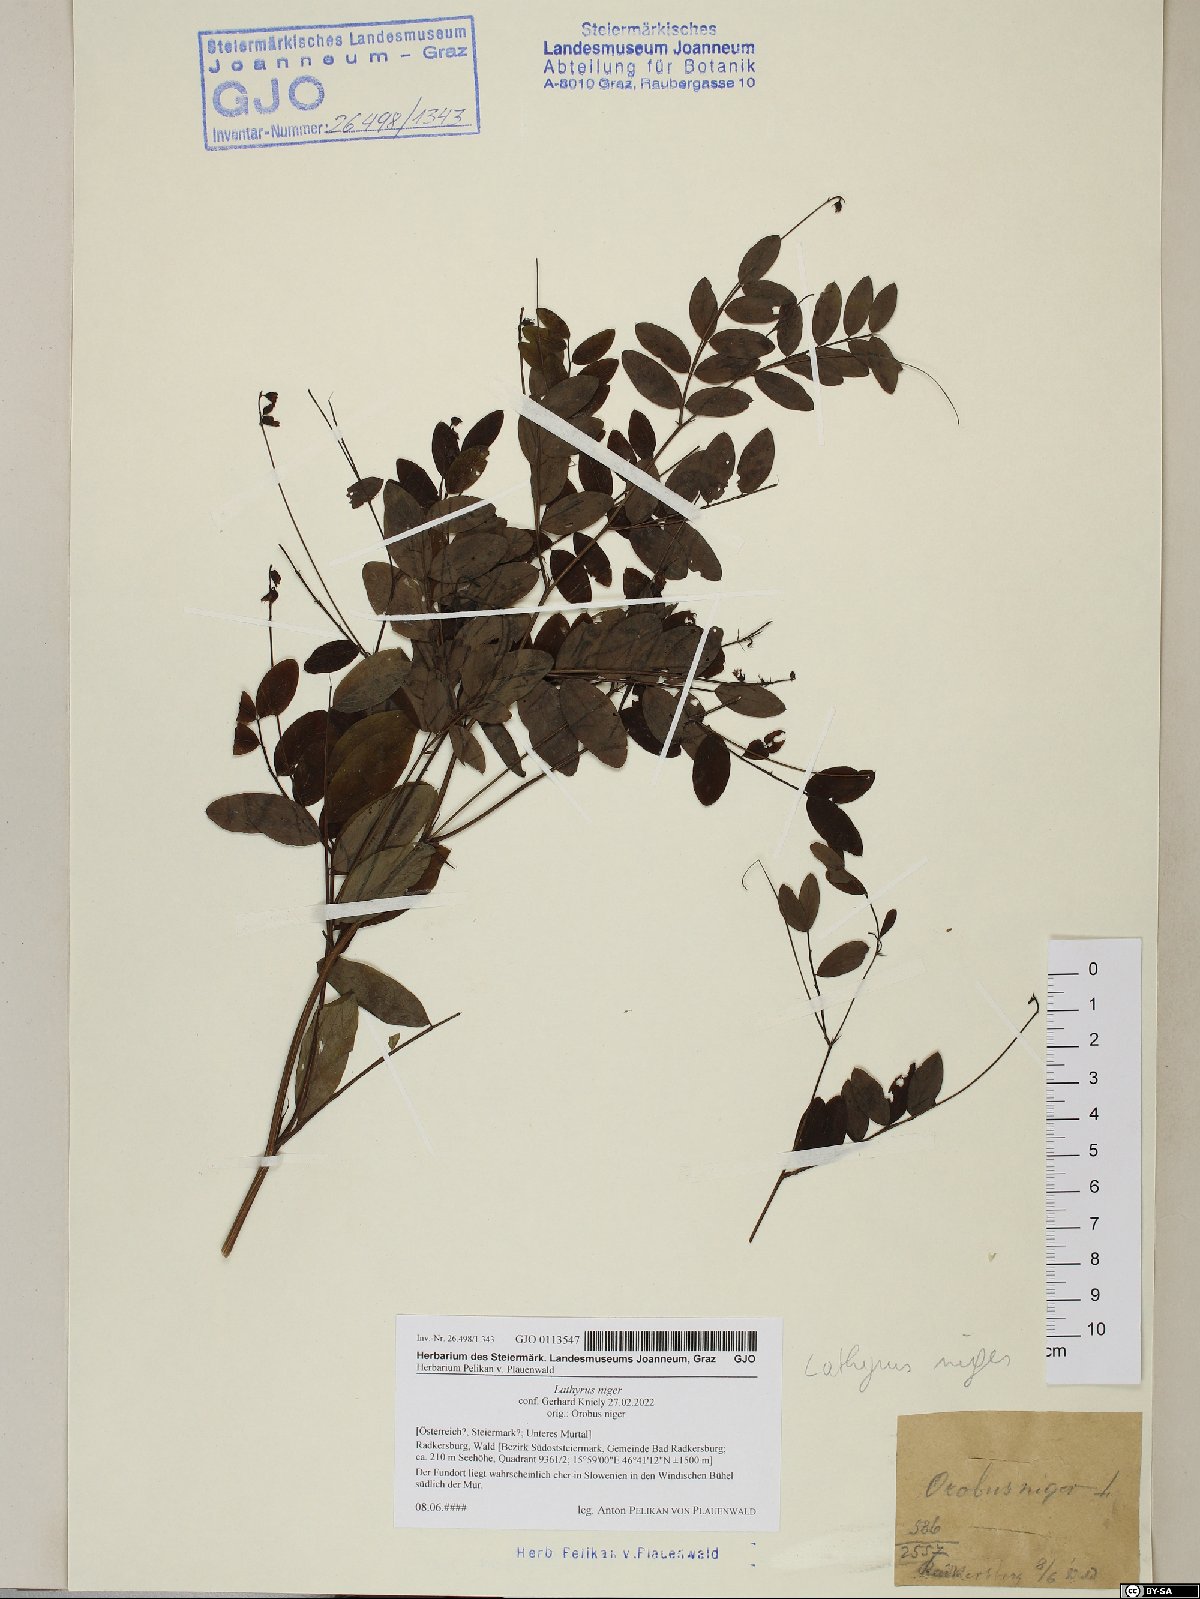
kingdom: Plantae
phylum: Tracheophyta
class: Magnoliopsida
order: Fabales
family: Fabaceae
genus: Lathyrus
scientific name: Lathyrus niger
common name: Black pea
